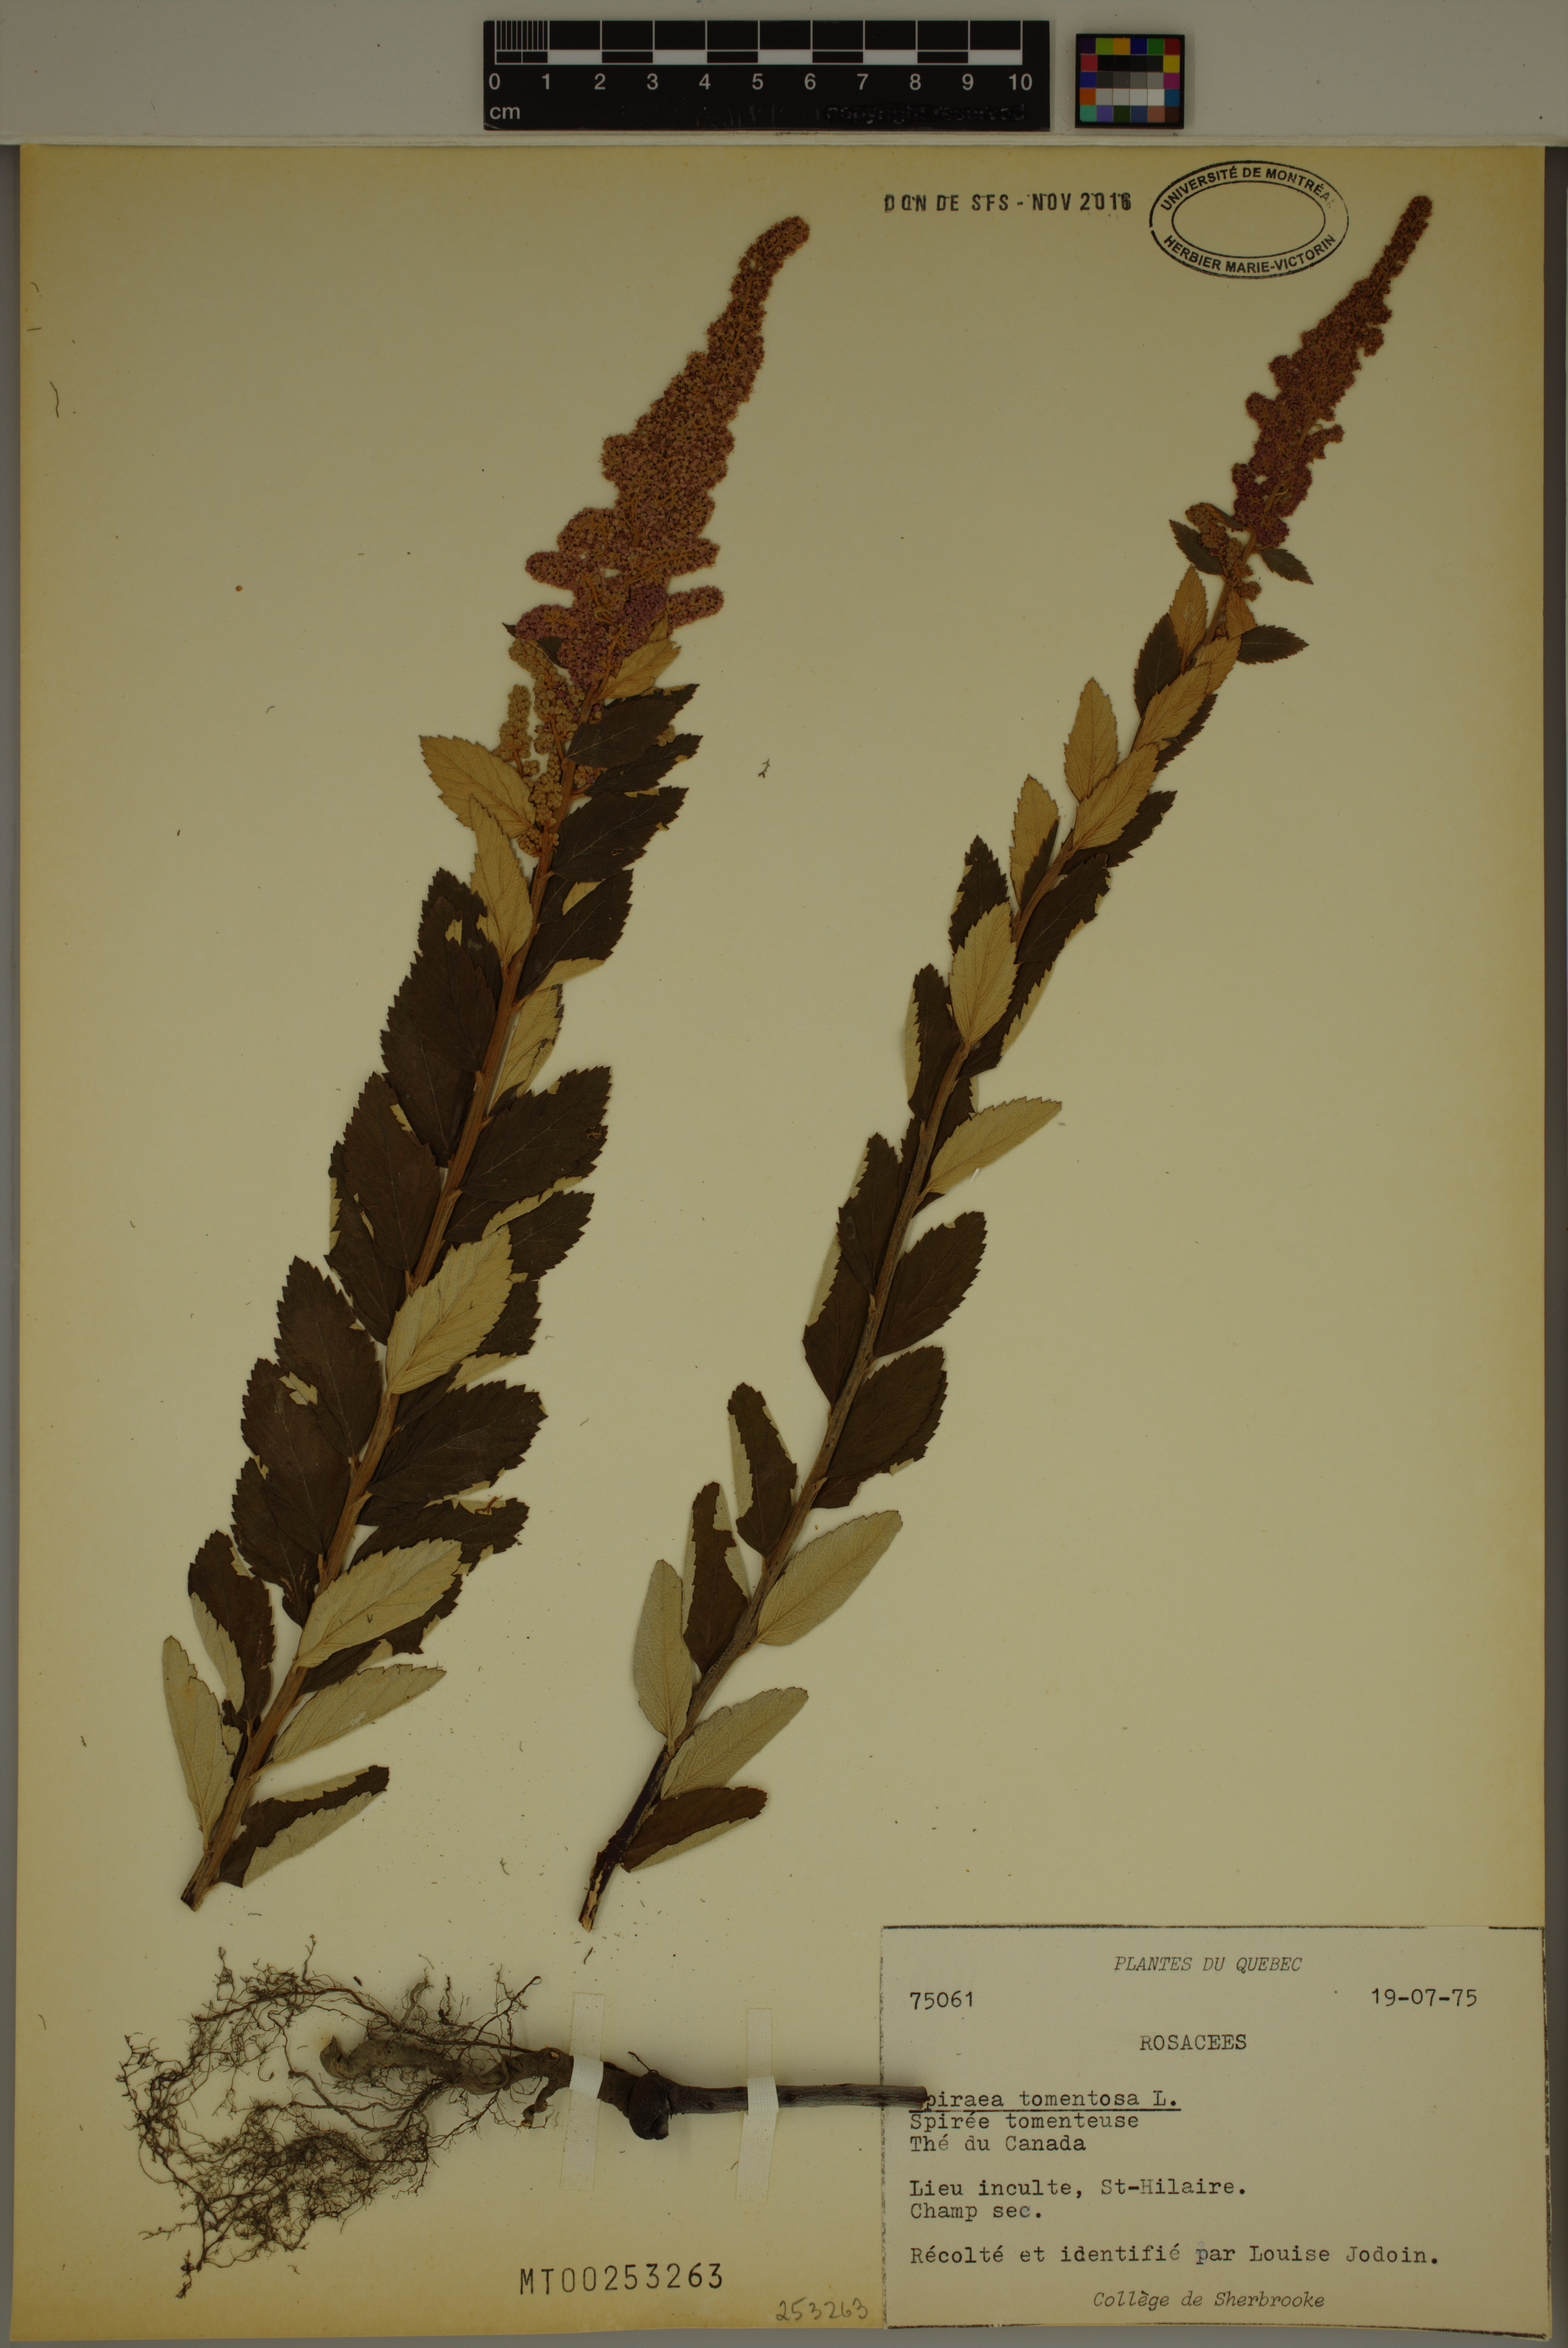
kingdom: Plantae
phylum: Tracheophyta
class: Magnoliopsida
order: Rosales
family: Rosaceae
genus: Spiraea
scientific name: Spiraea tomentosa
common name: Hardhack
